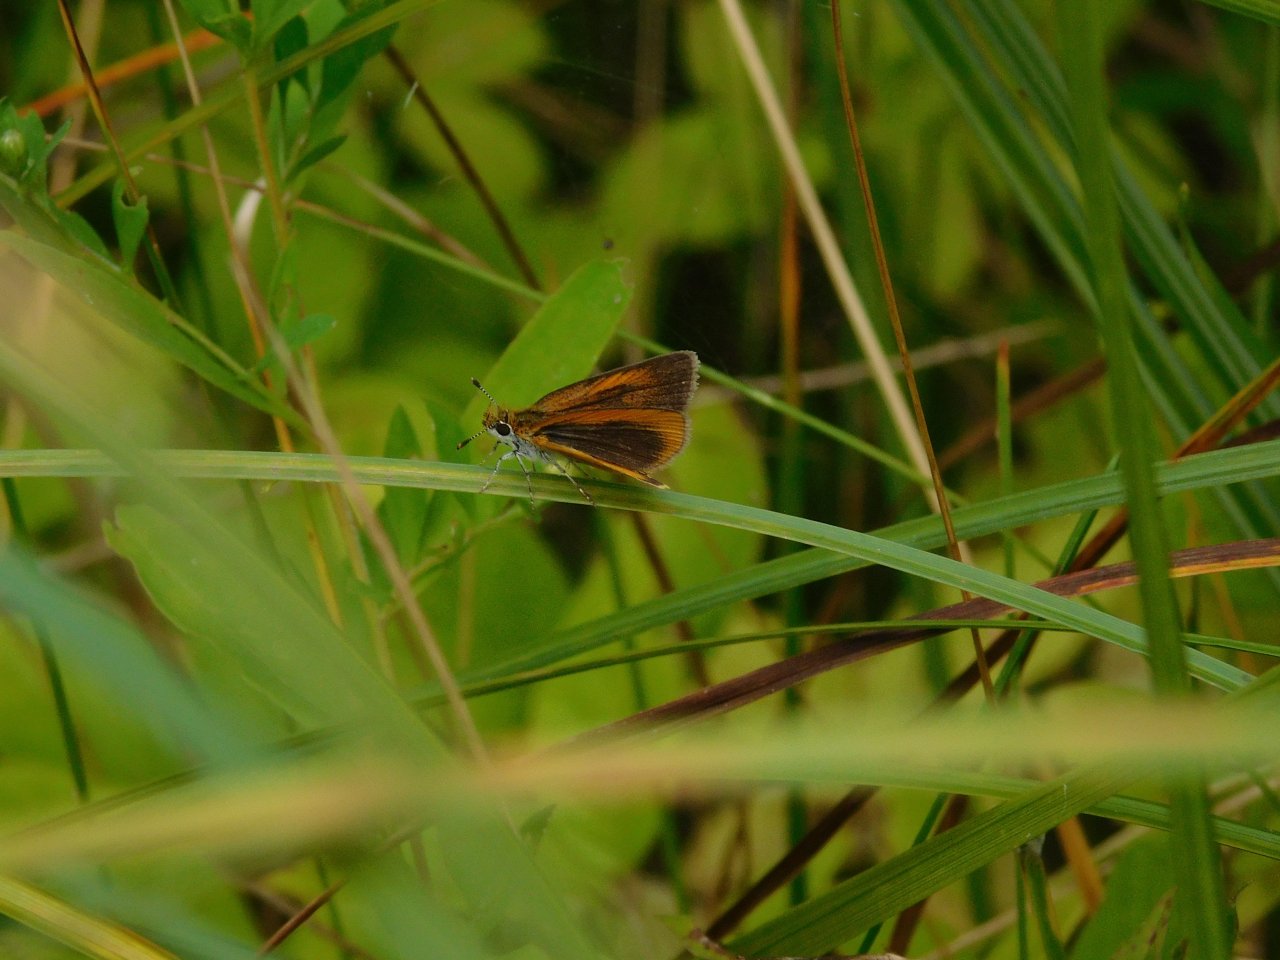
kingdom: Animalia
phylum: Arthropoda
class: Insecta
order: Lepidoptera
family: Hesperiidae
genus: Ancyloxypha
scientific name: Ancyloxypha numitor
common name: Least Skipper
